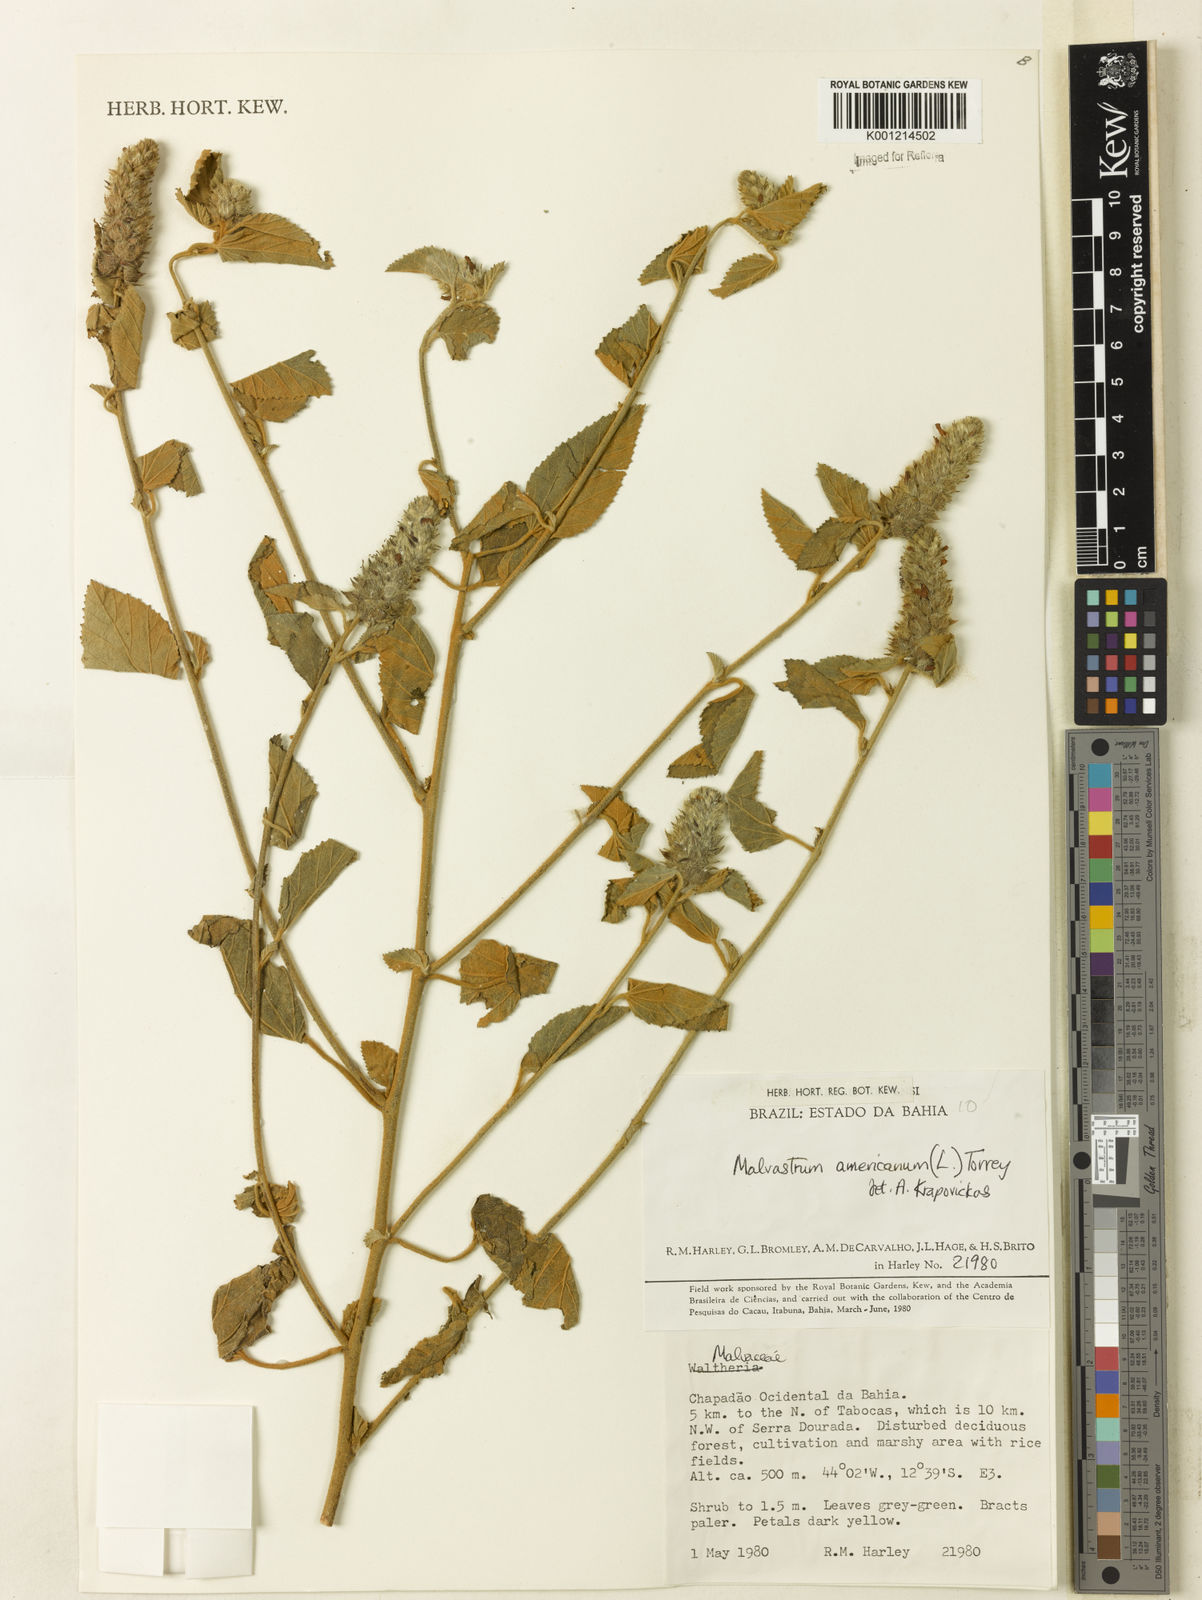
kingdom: Plantae
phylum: Tracheophyta
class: Magnoliopsida
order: Malvales
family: Malvaceae
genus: Malvastrum
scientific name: Malvastrum americanum
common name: Spiked malvastrum
